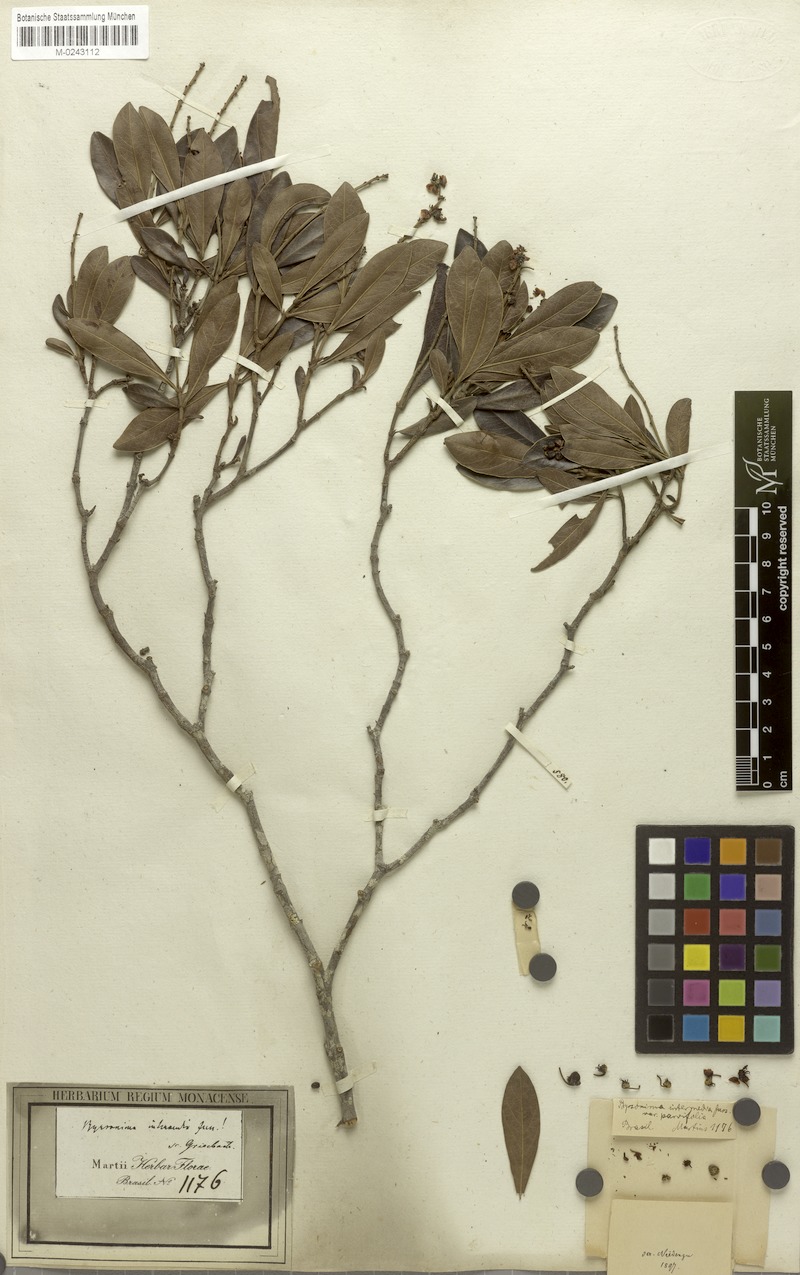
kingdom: Plantae
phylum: Tracheophyta
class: Magnoliopsida
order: Malpighiales
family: Malpighiaceae
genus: Byrsonima
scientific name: Byrsonima intermedia
